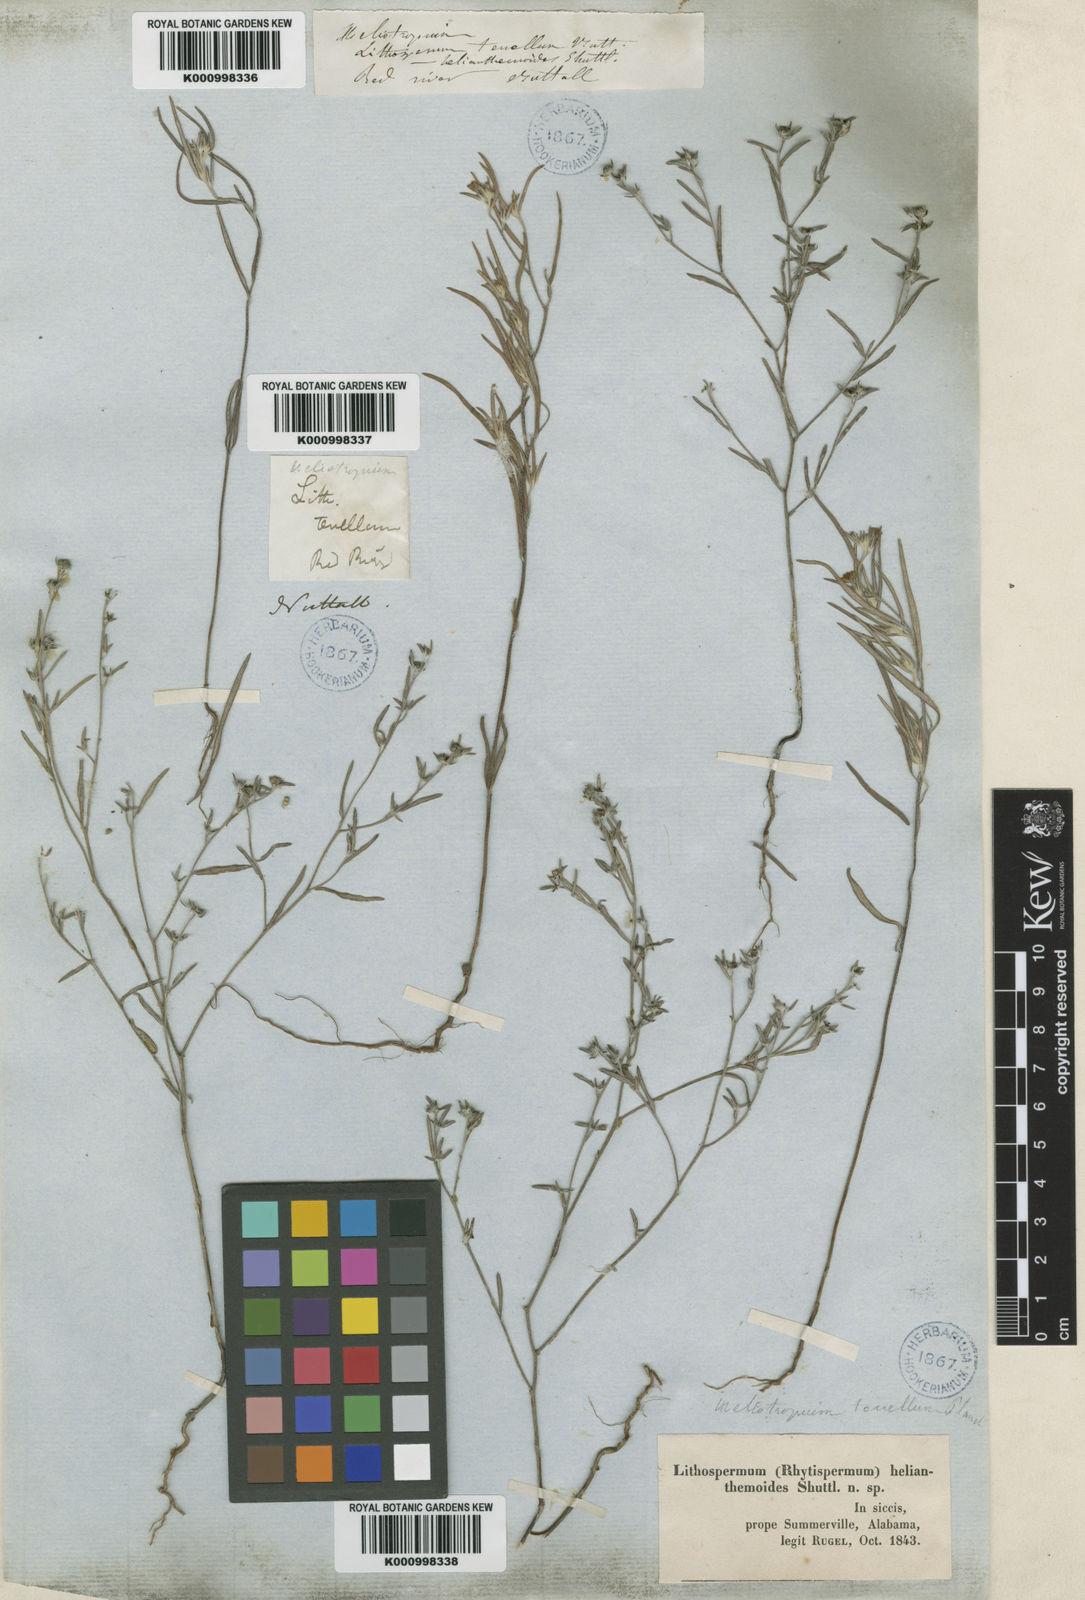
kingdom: Plantae
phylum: Tracheophyta
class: Magnoliopsida
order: Boraginales
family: Heliotropiaceae
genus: Euploca
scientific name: Euploca tenella
